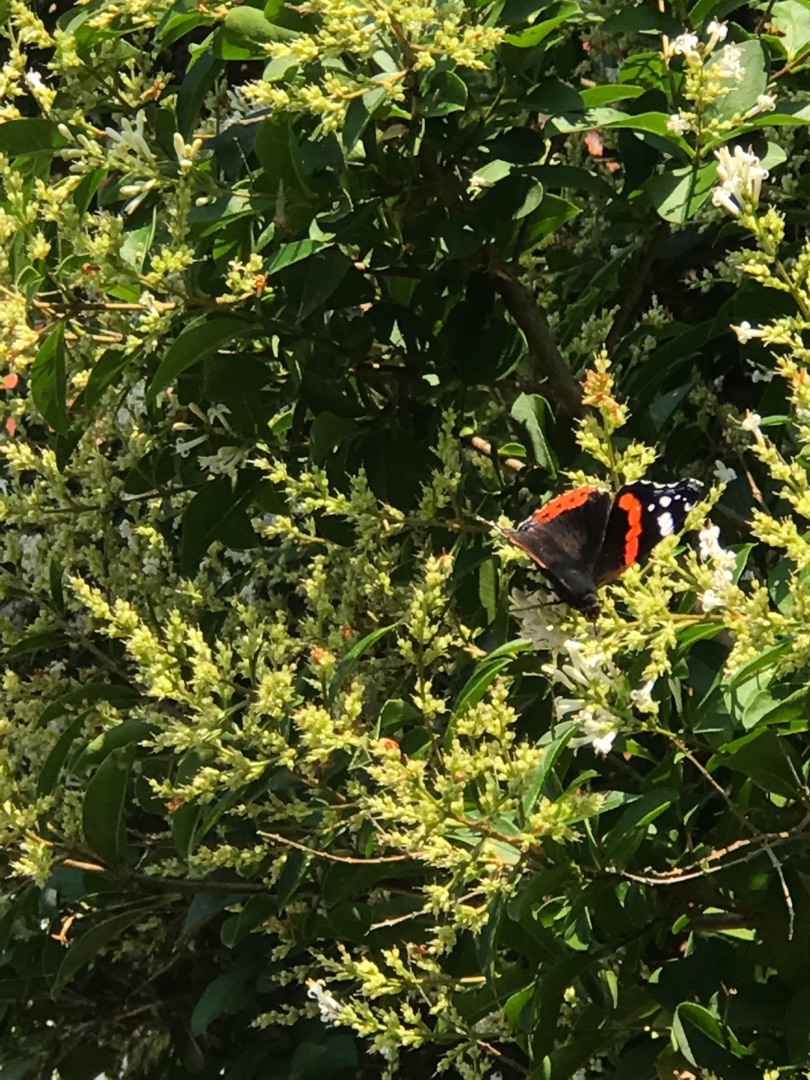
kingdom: Animalia
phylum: Arthropoda
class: Insecta
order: Lepidoptera
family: Nymphalidae
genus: Vanessa
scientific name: Vanessa atalanta
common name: Admiral
